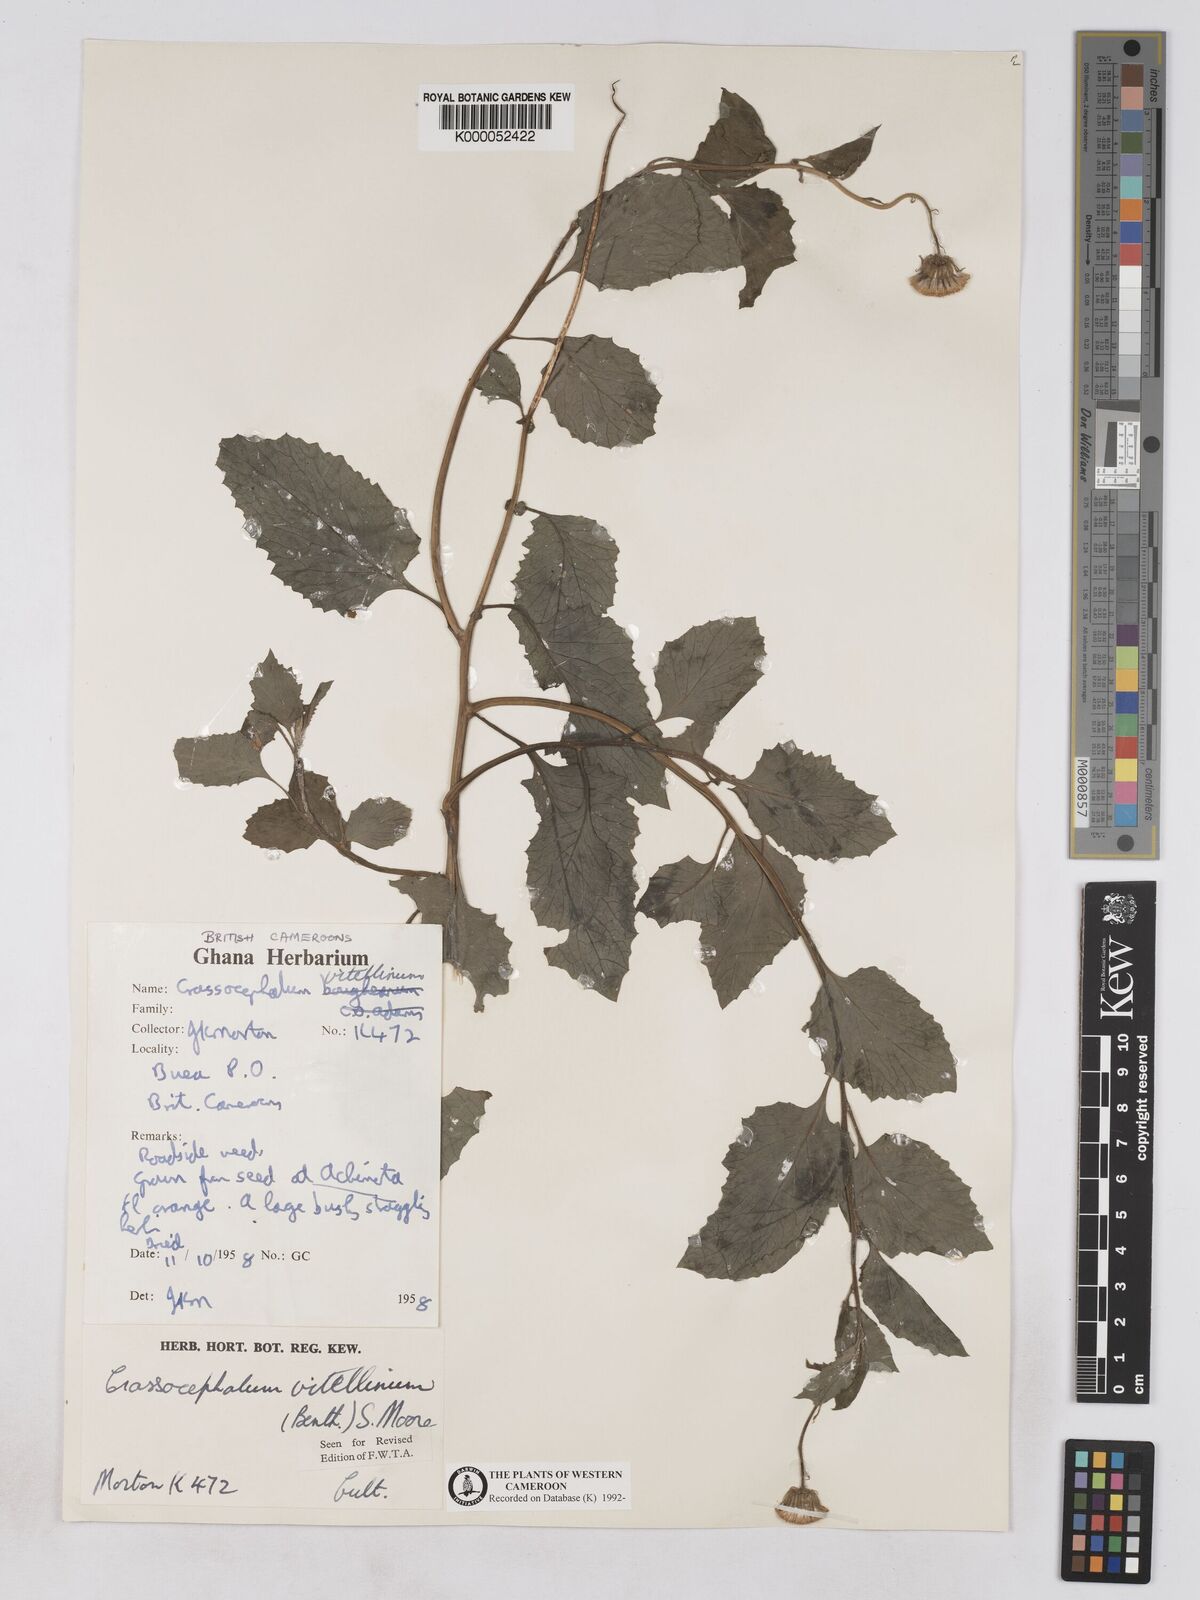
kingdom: Plantae
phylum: Tracheophyta
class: Magnoliopsida
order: Asterales
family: Asteraceae
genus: Crassocephalum
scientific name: Crassocephalum vitellinum
